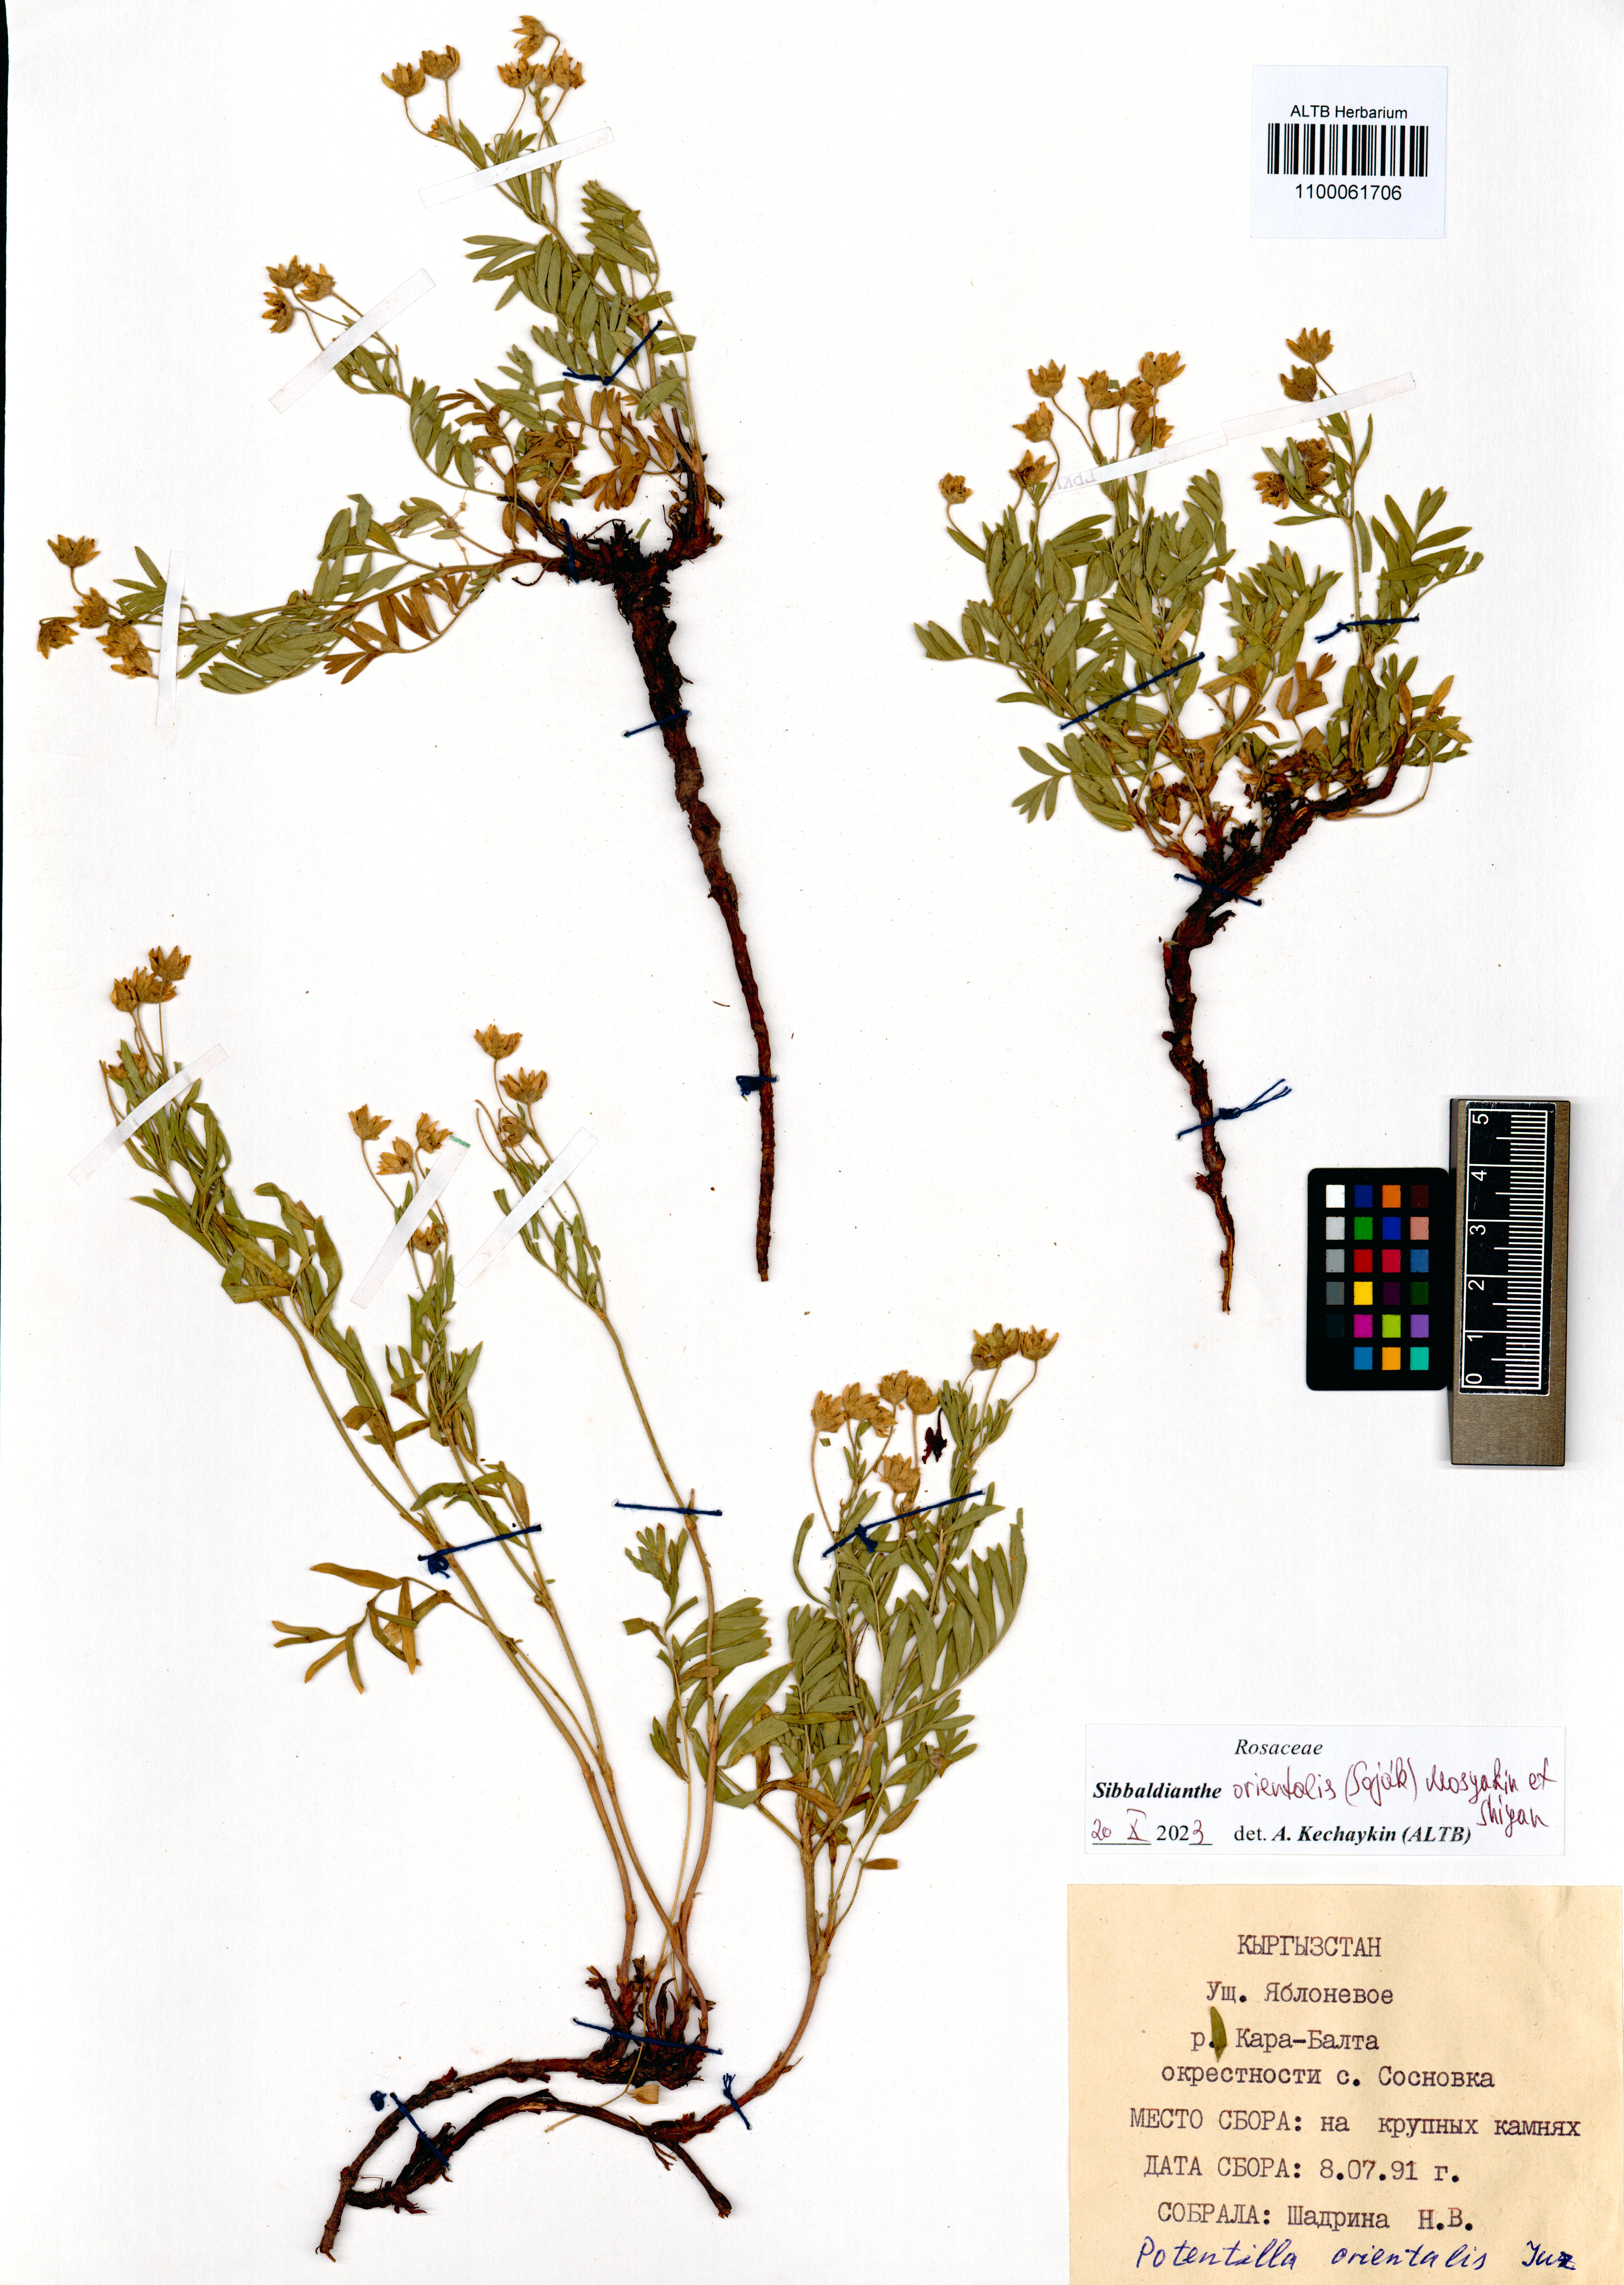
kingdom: Plantae
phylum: Tracheophyta
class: Magnoliopsida
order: Rosales
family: Rosaceae
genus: Sibbaldianthe
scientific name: Sibbaldianthe orientalis
